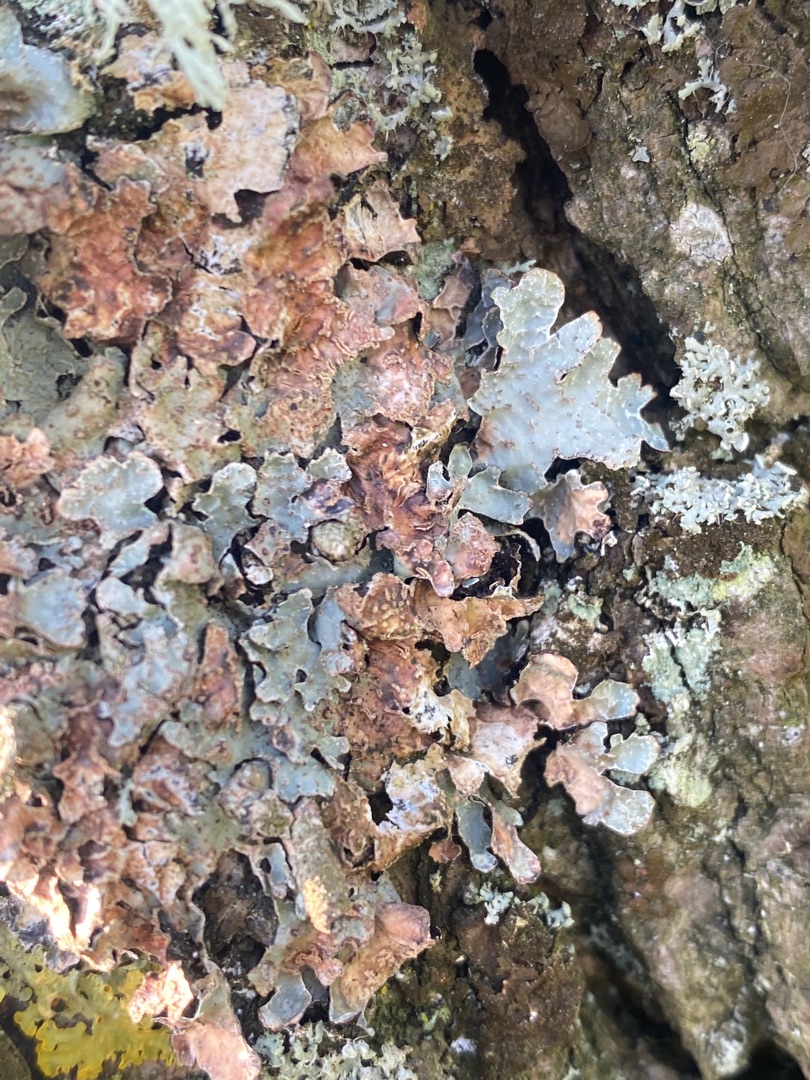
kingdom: Fungi
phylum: Ascomycota
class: Lecanoromycetes
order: Lecanorales
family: Parmeliaceae
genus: Parmelia
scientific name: Parmelia sulcata
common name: Rynket skållav
